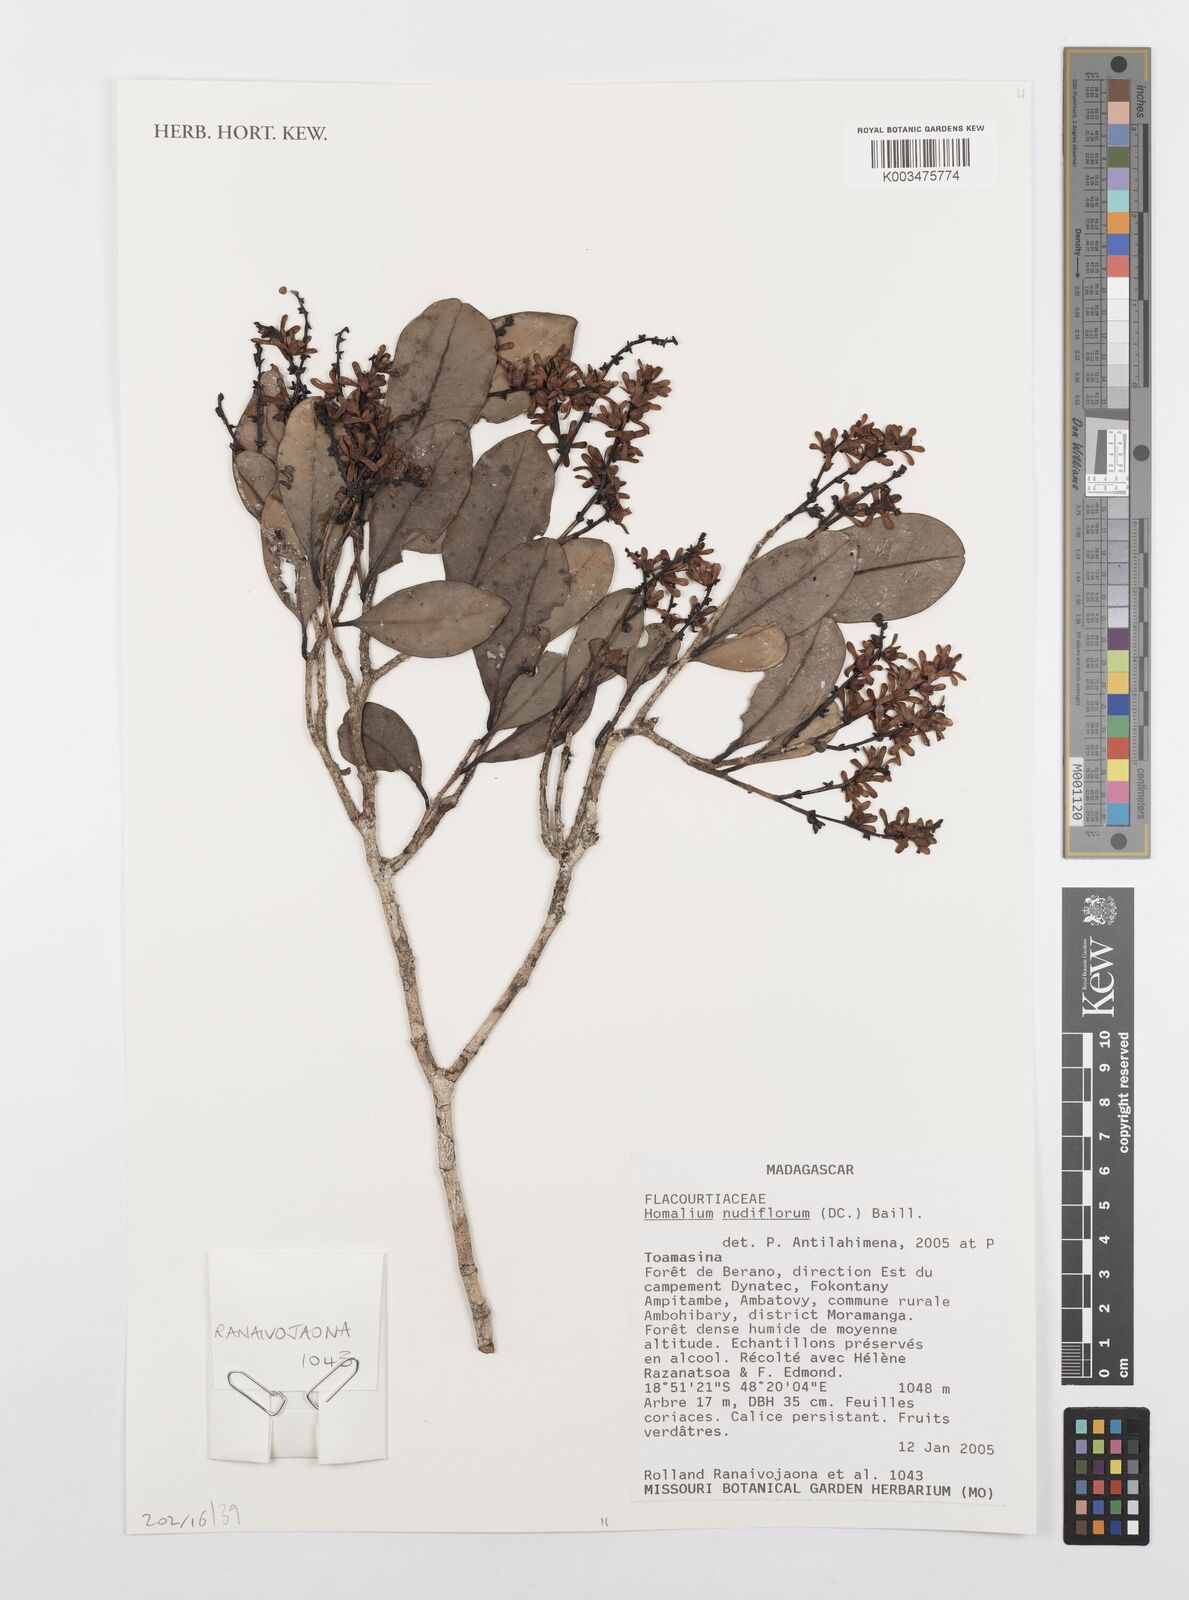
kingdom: Plantae
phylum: Tracheophyta
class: Magnoliopsida
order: Malpighiales
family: Salicaceae
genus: Homalium
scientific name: Homalium nudiflorum
